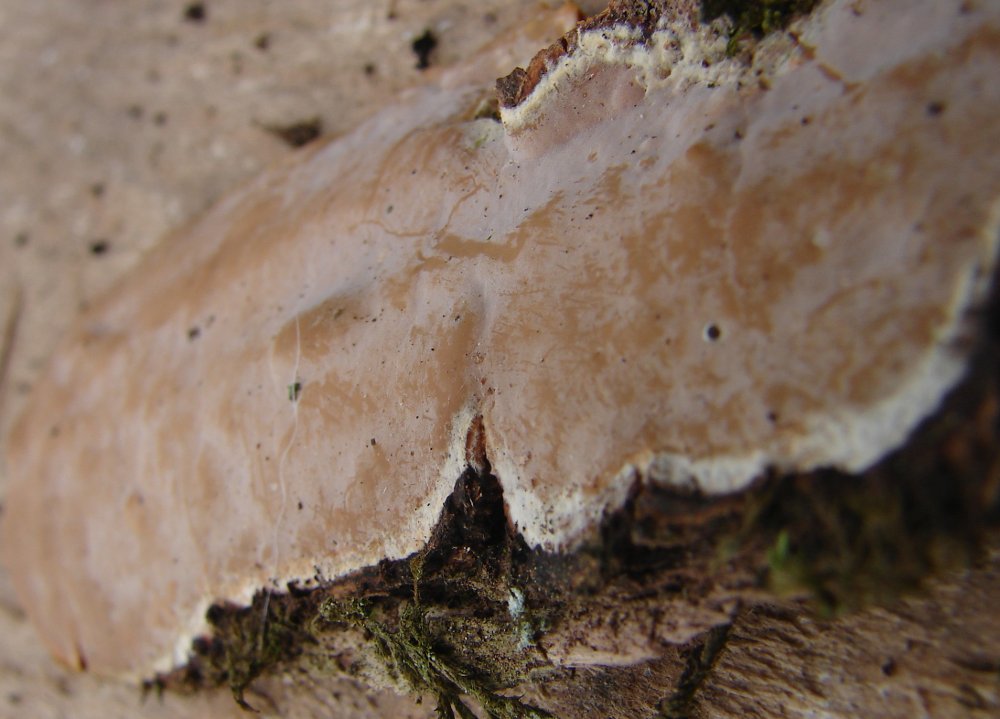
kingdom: Fungi
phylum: Basidiomycota
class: Agaricomycetes
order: Russulales
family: Peniophoraceae
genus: Scytinostroma
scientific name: Scytinostroma hemidichophyticum
